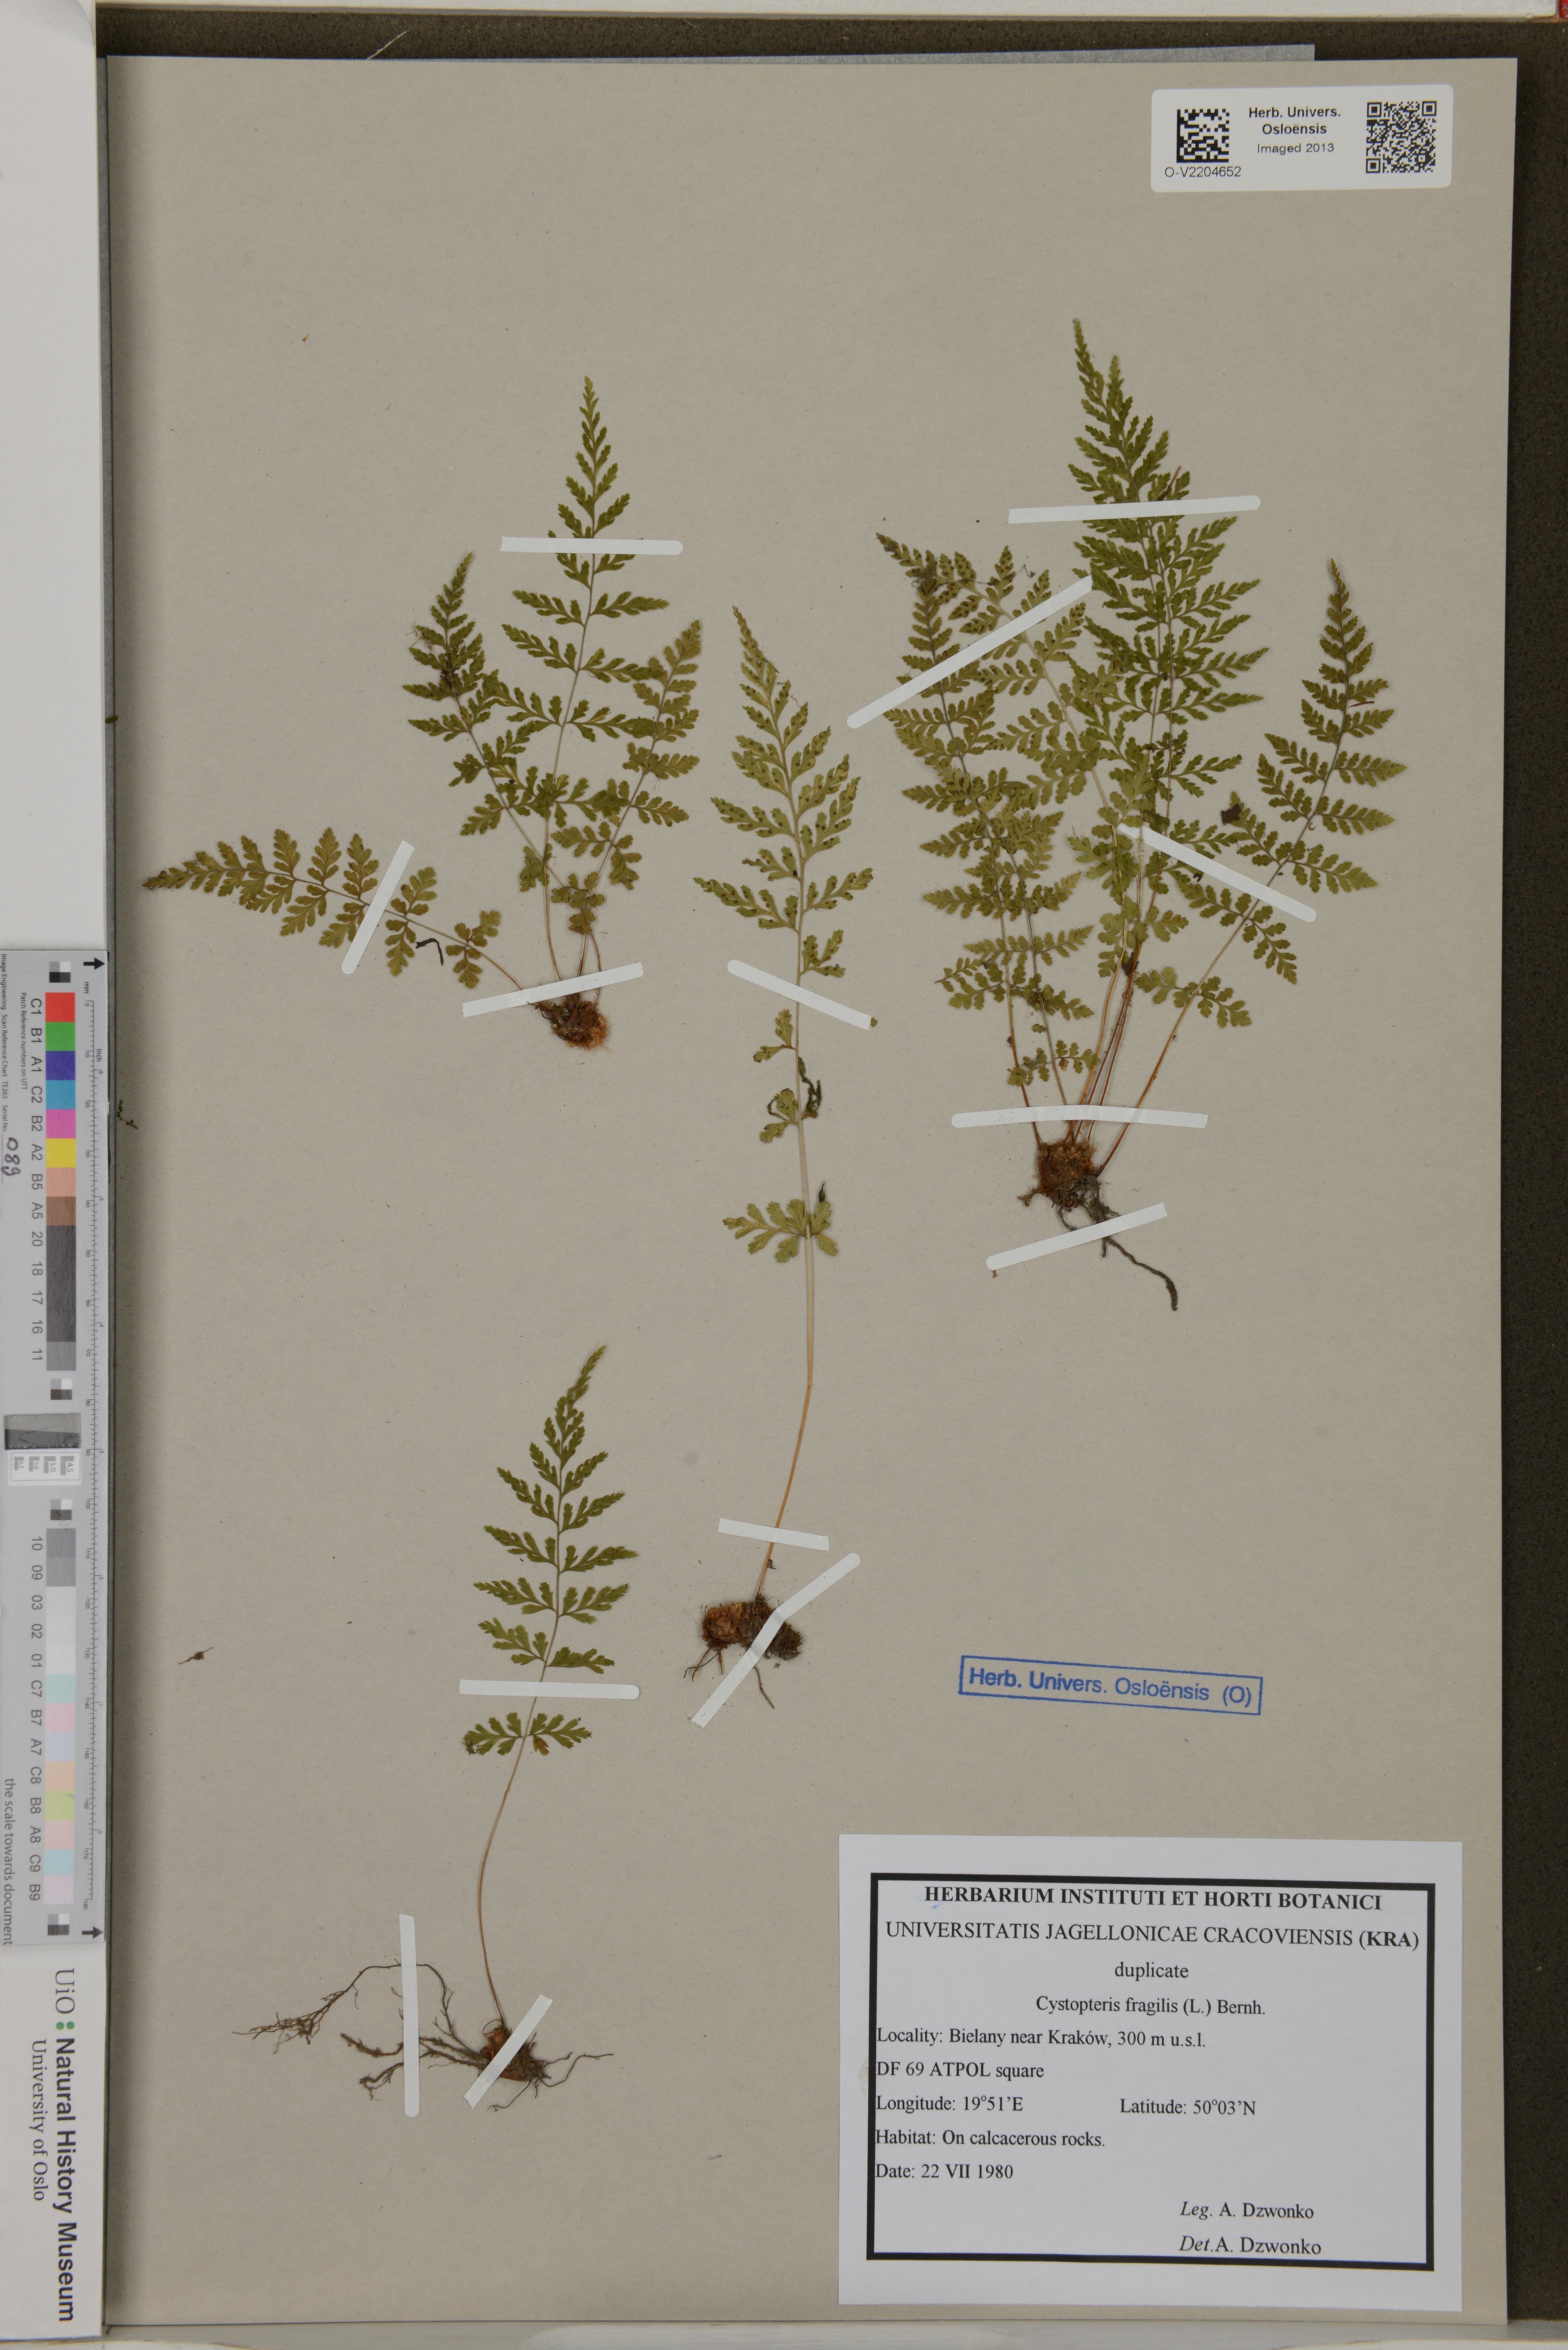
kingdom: Plantae
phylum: Tracheophyta
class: Polypodiopsida
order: Polypodiales
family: Cystopteridaceae
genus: Cystopteris
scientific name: Cystopteris fragilis
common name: Brittle bladder fern
